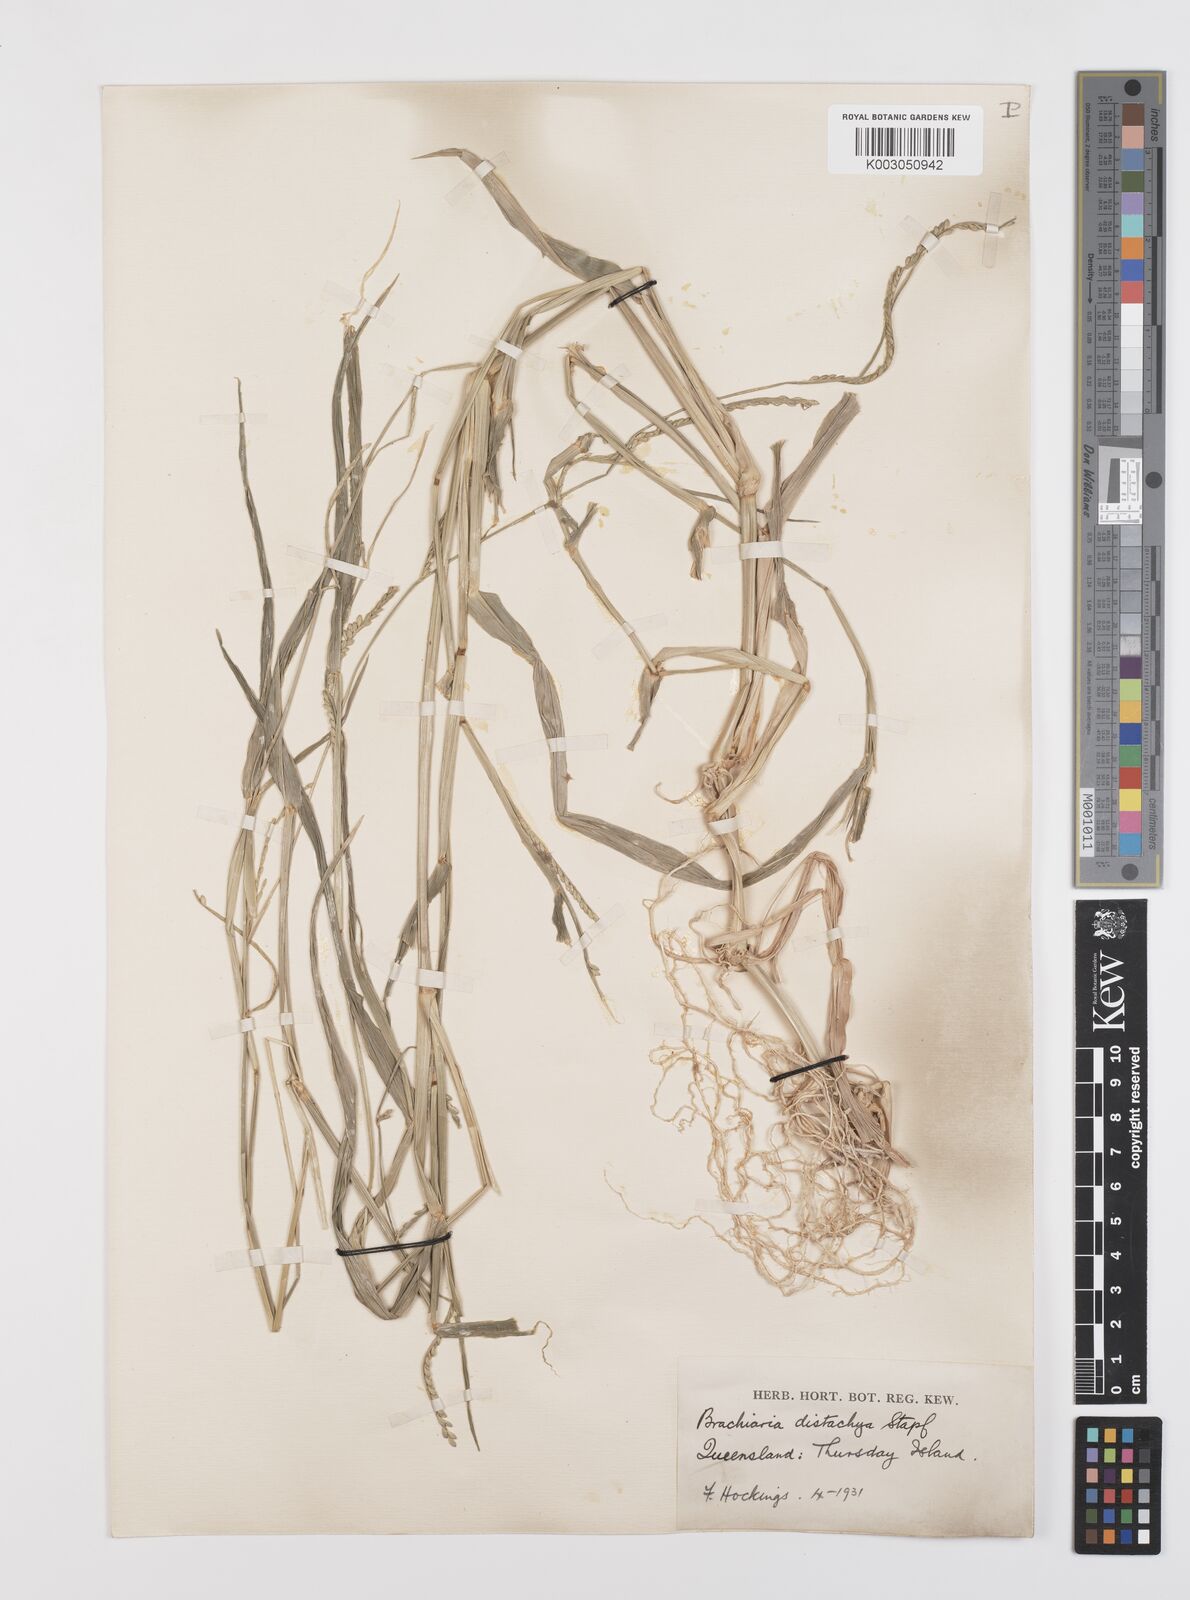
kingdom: Plantae
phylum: Tracheophyta
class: Liliopsida
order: Poales
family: Poaceae
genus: Urochloa
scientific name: Urochloa subquadripara
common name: Armgrass millet
